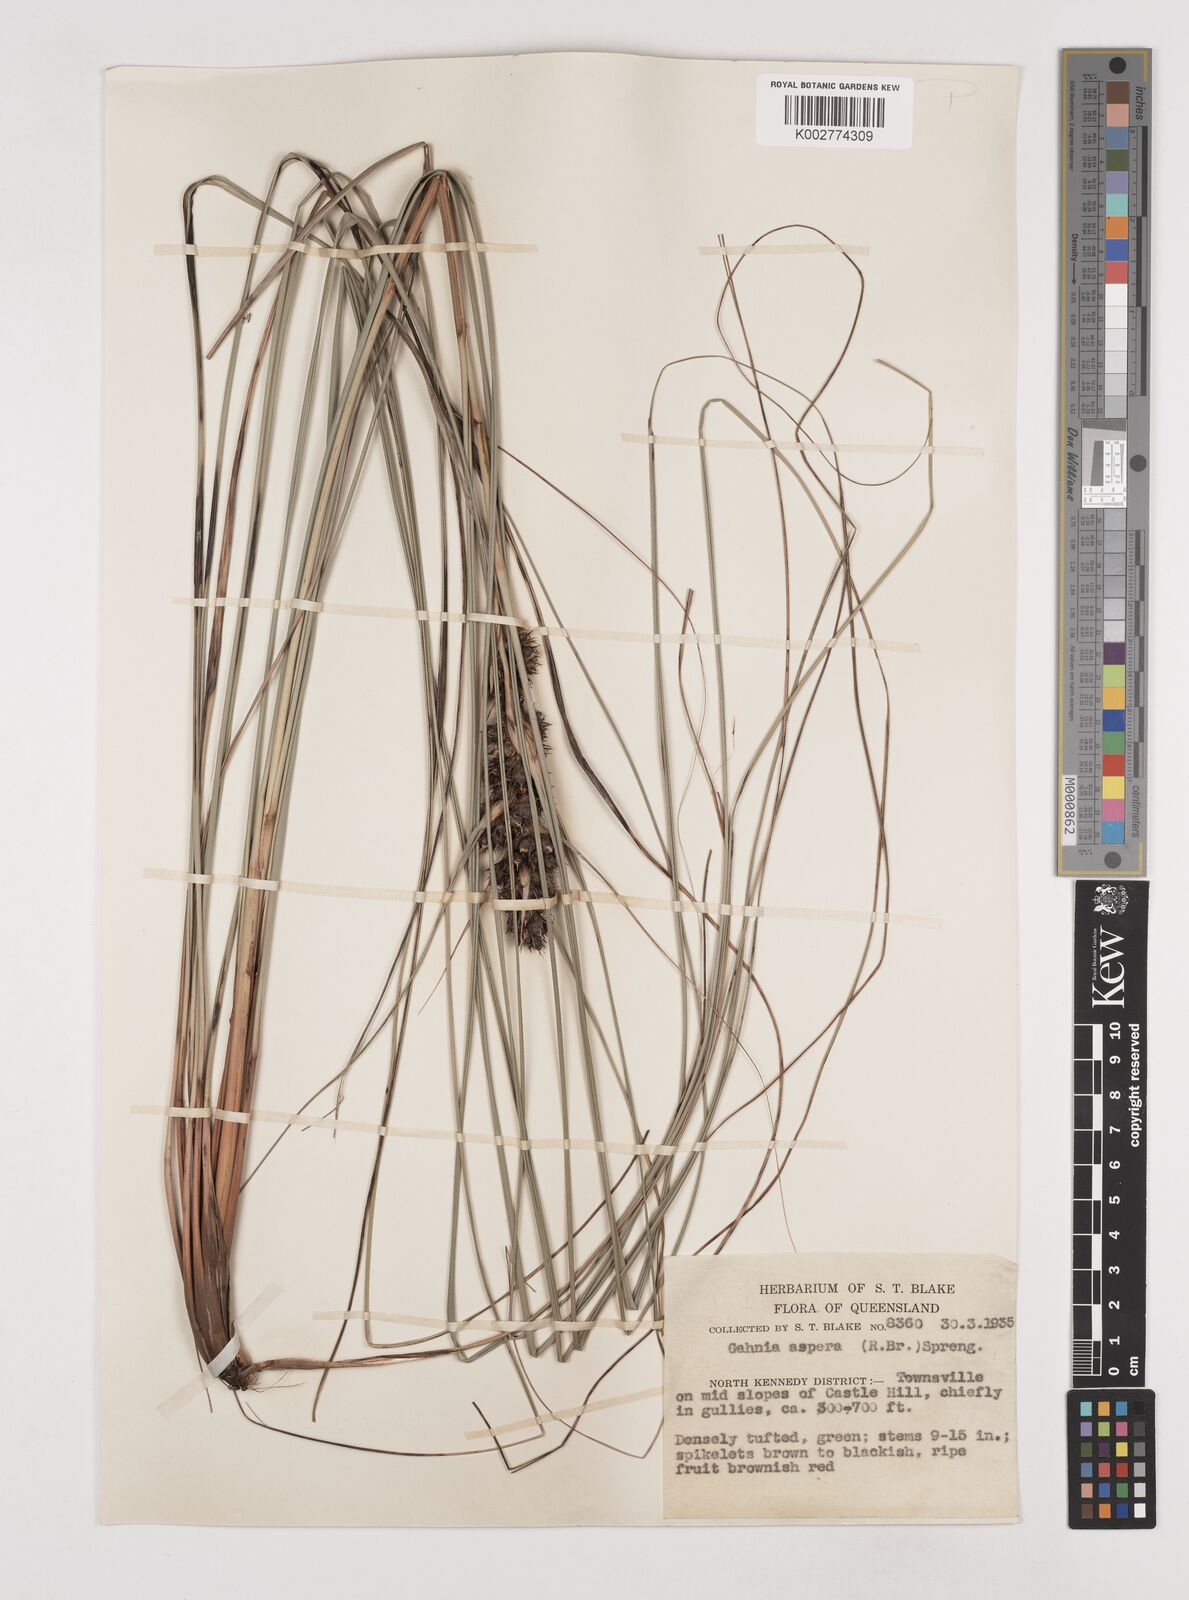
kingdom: Plantae
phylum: Tracheophyta
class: Liliopsida
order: Poales
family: Cyperaceae
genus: Gahnia
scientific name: Gahnia aspera
